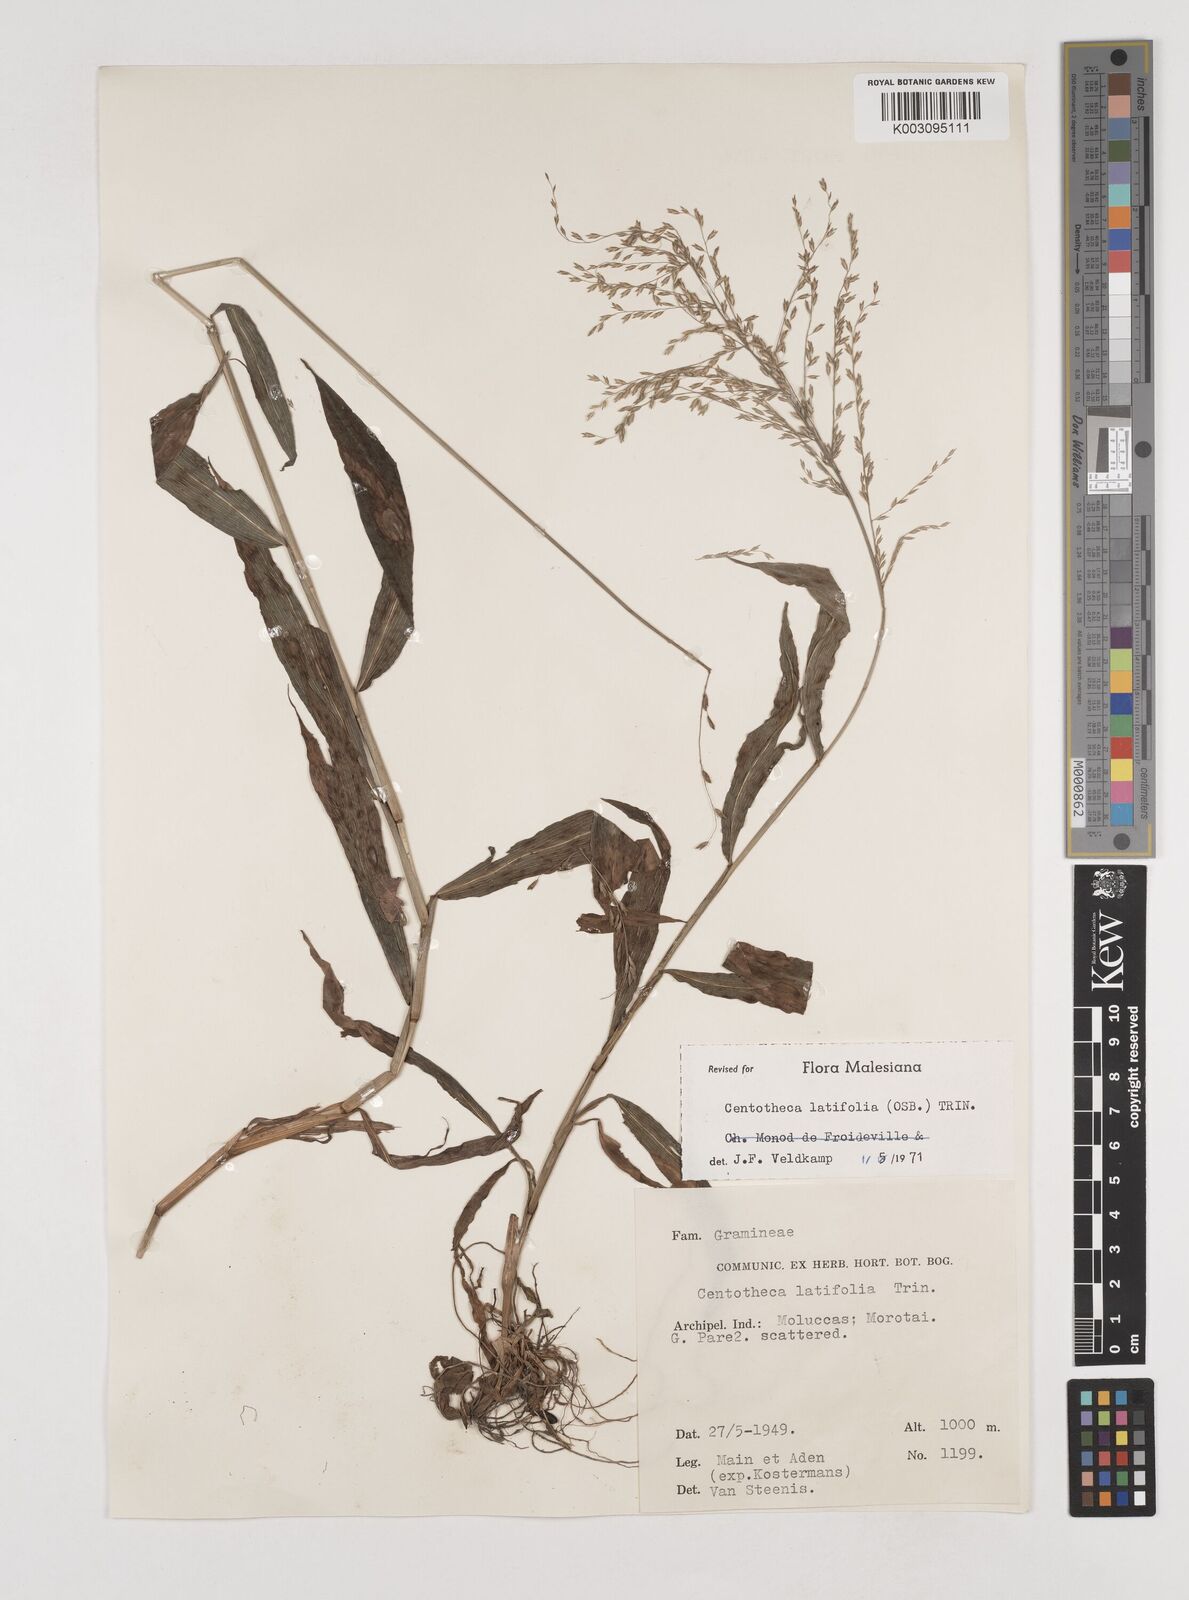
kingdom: Plantae
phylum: Tracheophyta
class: Liliopsida
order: Poales
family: Poaceae
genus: Centotheca
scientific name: Centotheca lappacea
